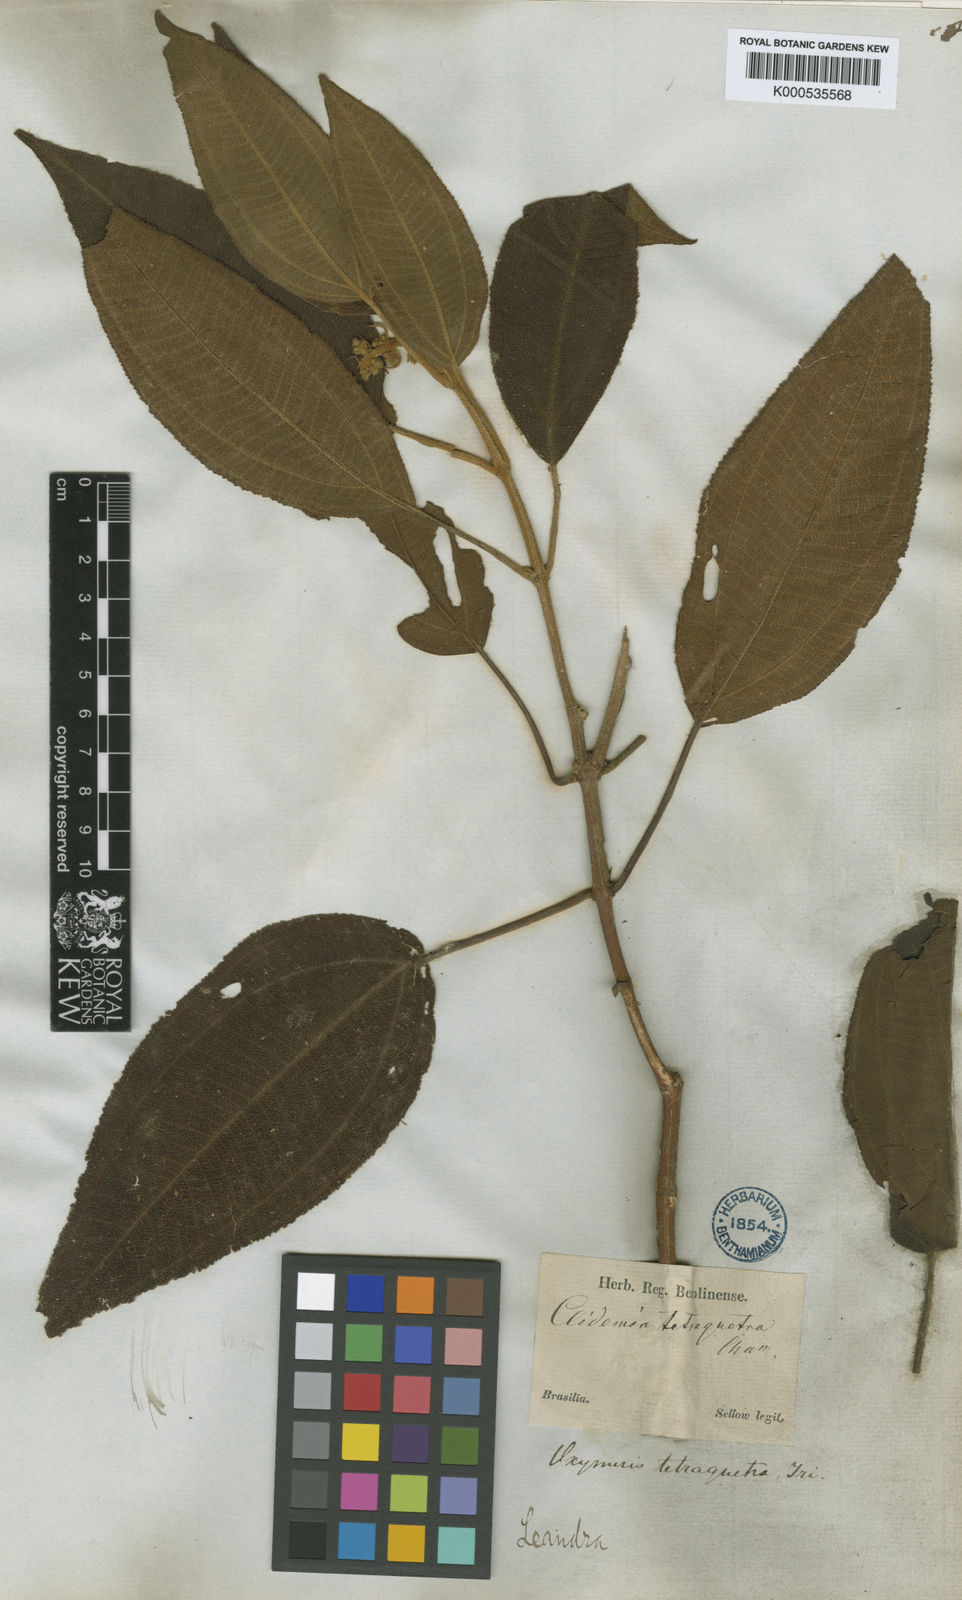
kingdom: Plantae
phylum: Tracheophyta
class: Magnoliopsida
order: Myrtales
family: Melastomataceae
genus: Miconia
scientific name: Miconia tetraquetra
